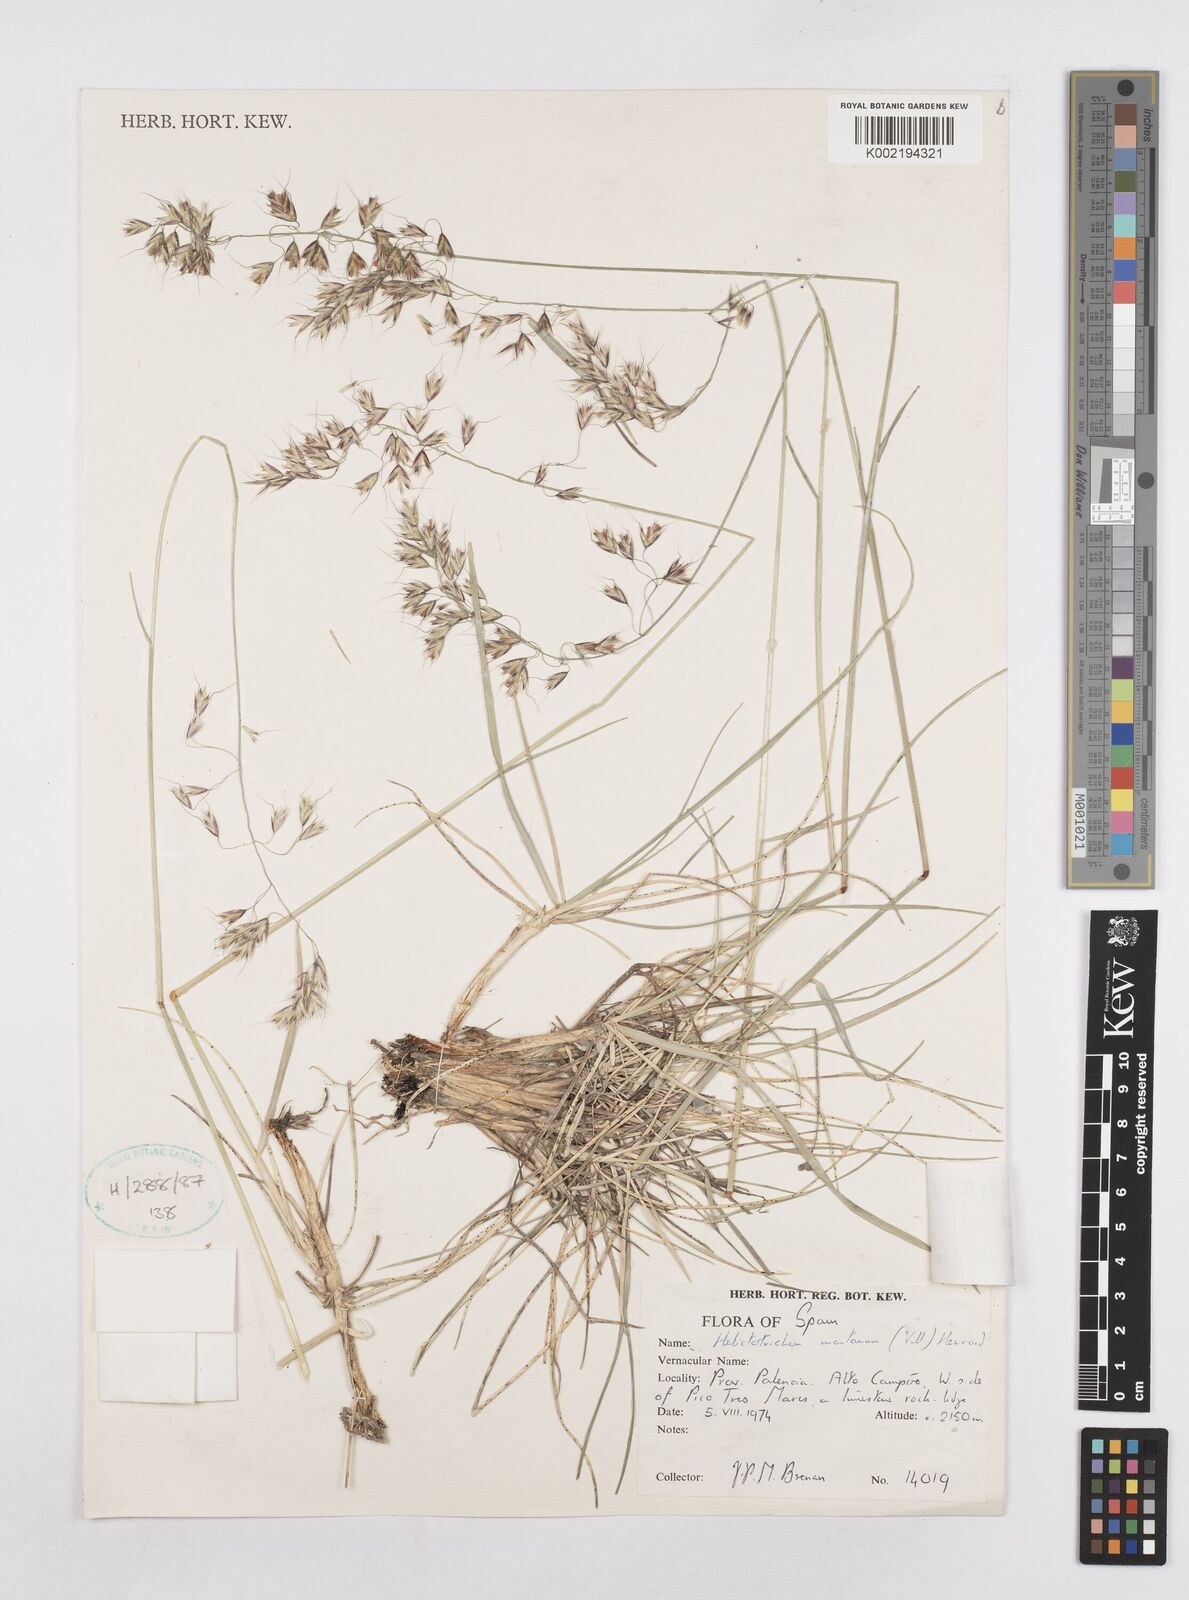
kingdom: Plantae
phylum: Tracheophyta
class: Liliopsida
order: Poales
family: Poaceae
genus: Helictotrichon
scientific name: Helictotrichon sedenense
